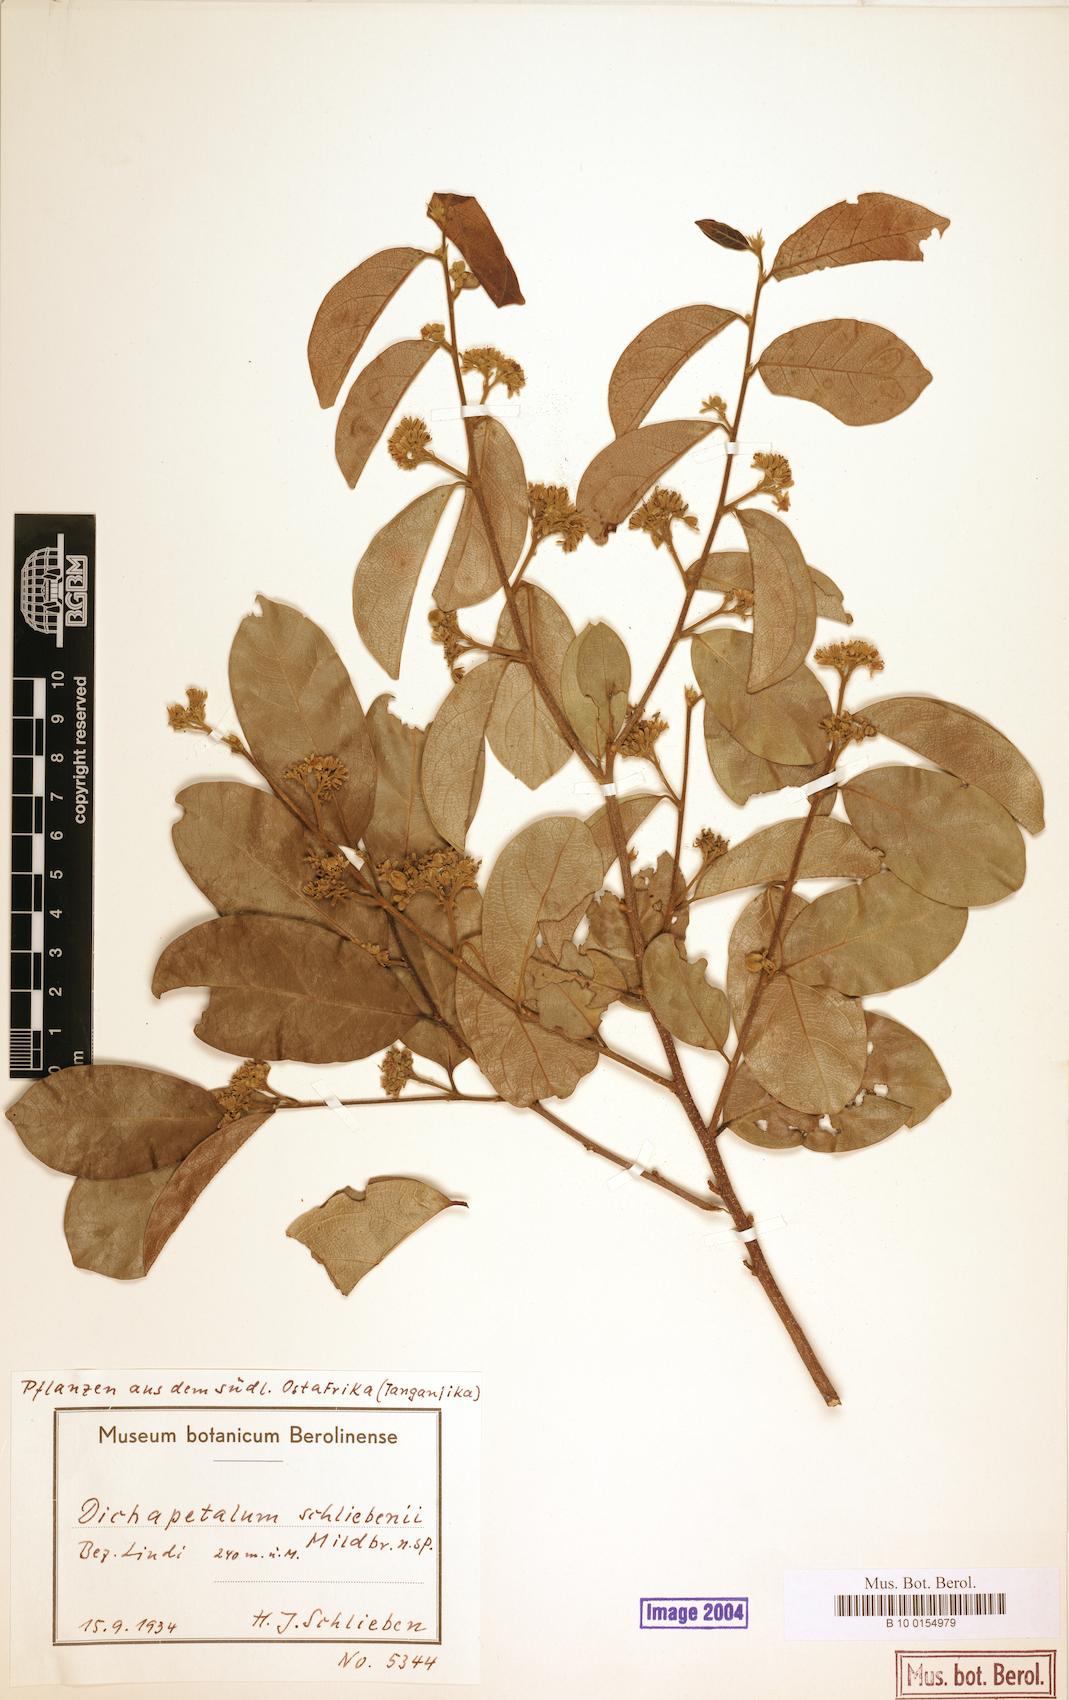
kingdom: Plantae
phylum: Tracheophyta
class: Magnoliopsida
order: Malpighiales
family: Dichapetalaceae
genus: Dichapetalum
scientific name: Dichapetalum stuhlmannii
